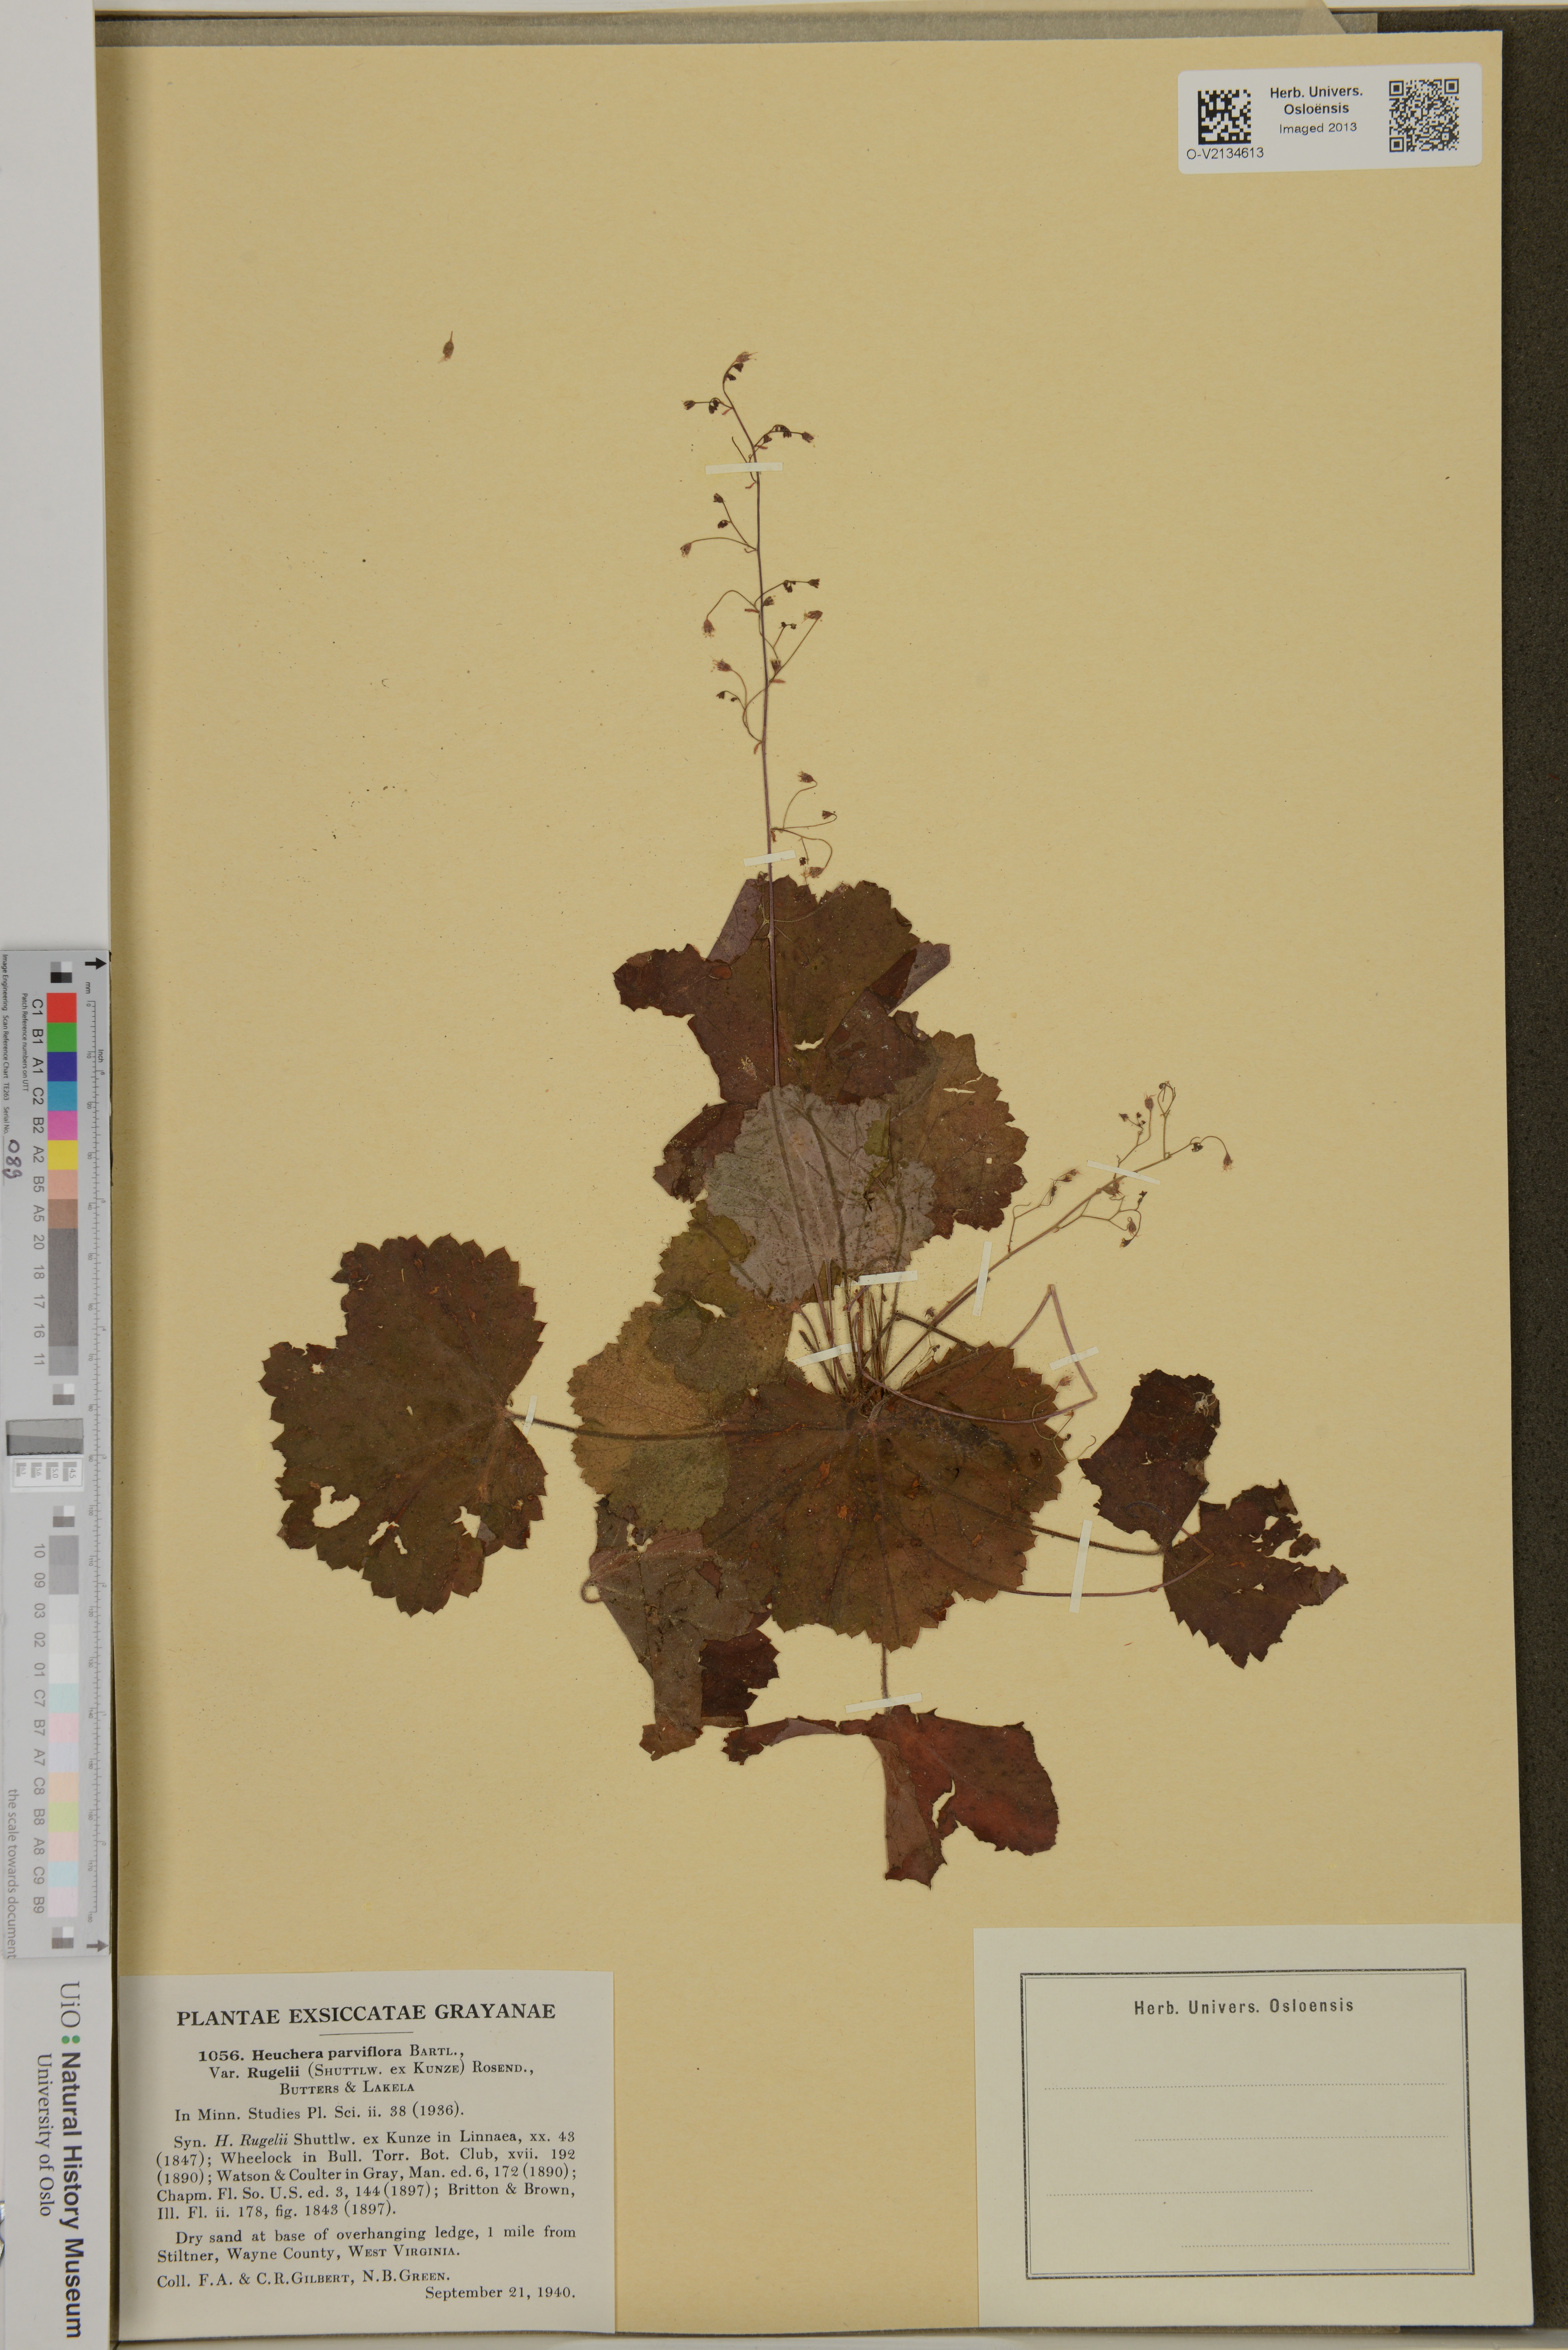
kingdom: Plantae
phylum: Tracheophyta
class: Magnoliopsida
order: Saxifragales
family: Saxifragaceae
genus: Heuchera
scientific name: Heuchera parviflora
